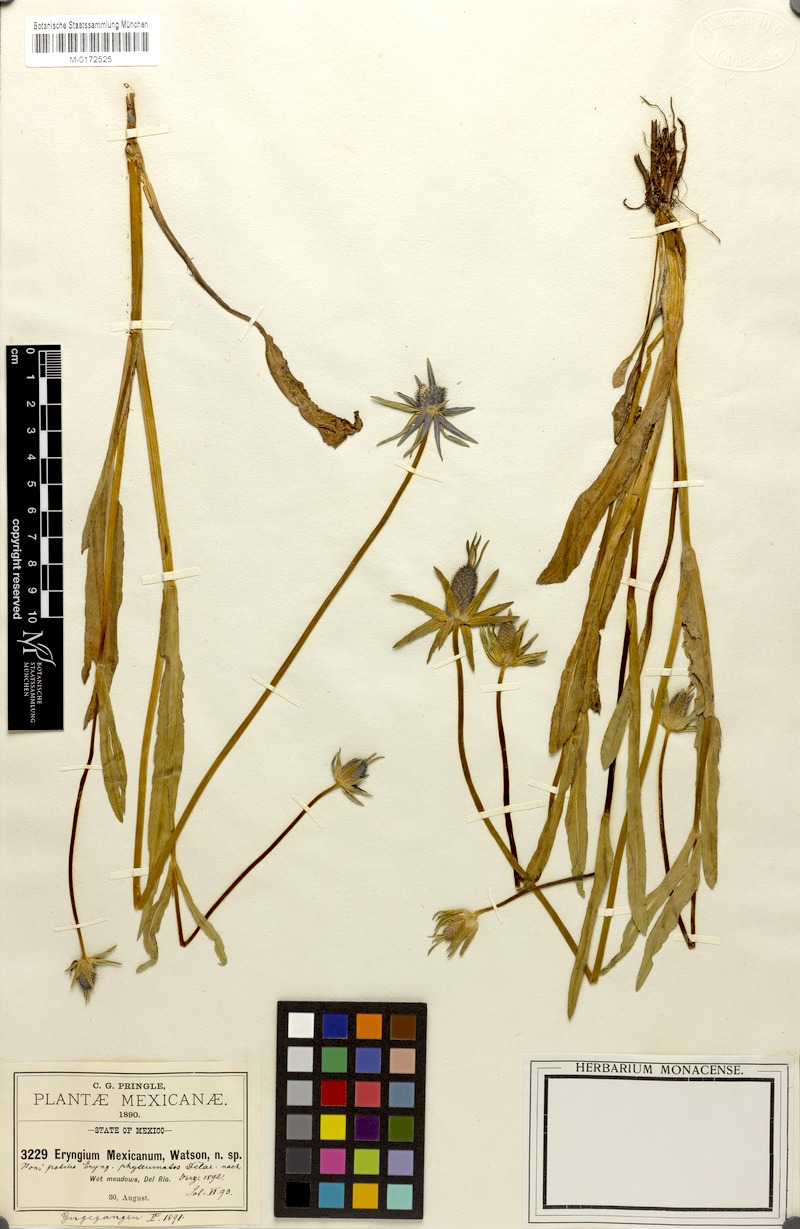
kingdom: Plantae
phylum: Tracheophyta
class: Magnoliopsida
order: Apiales
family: Apiaceae
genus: Eryngium
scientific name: Eryngium phyteumae
